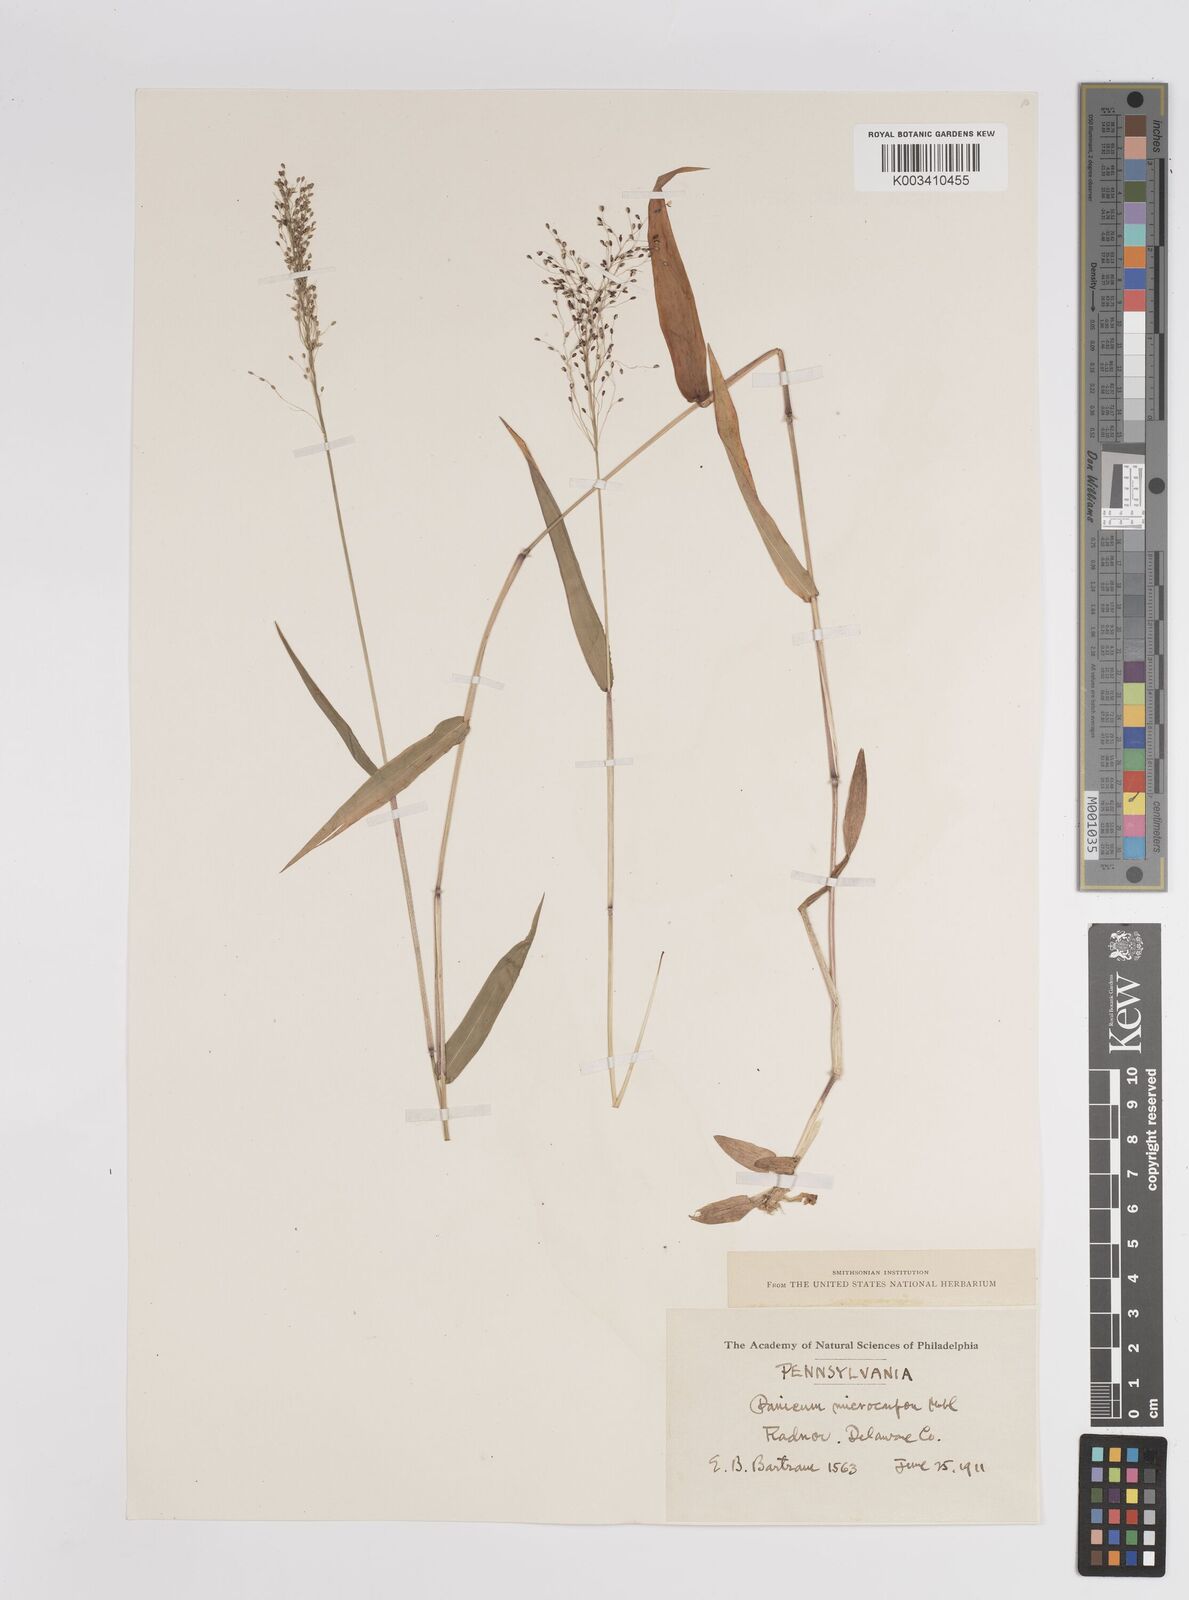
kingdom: Plantae
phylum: Tracheophyta
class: Liliopsida
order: Poales
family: Poaceae
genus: Dichanthelium
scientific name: Dichanthelium polyanthes
